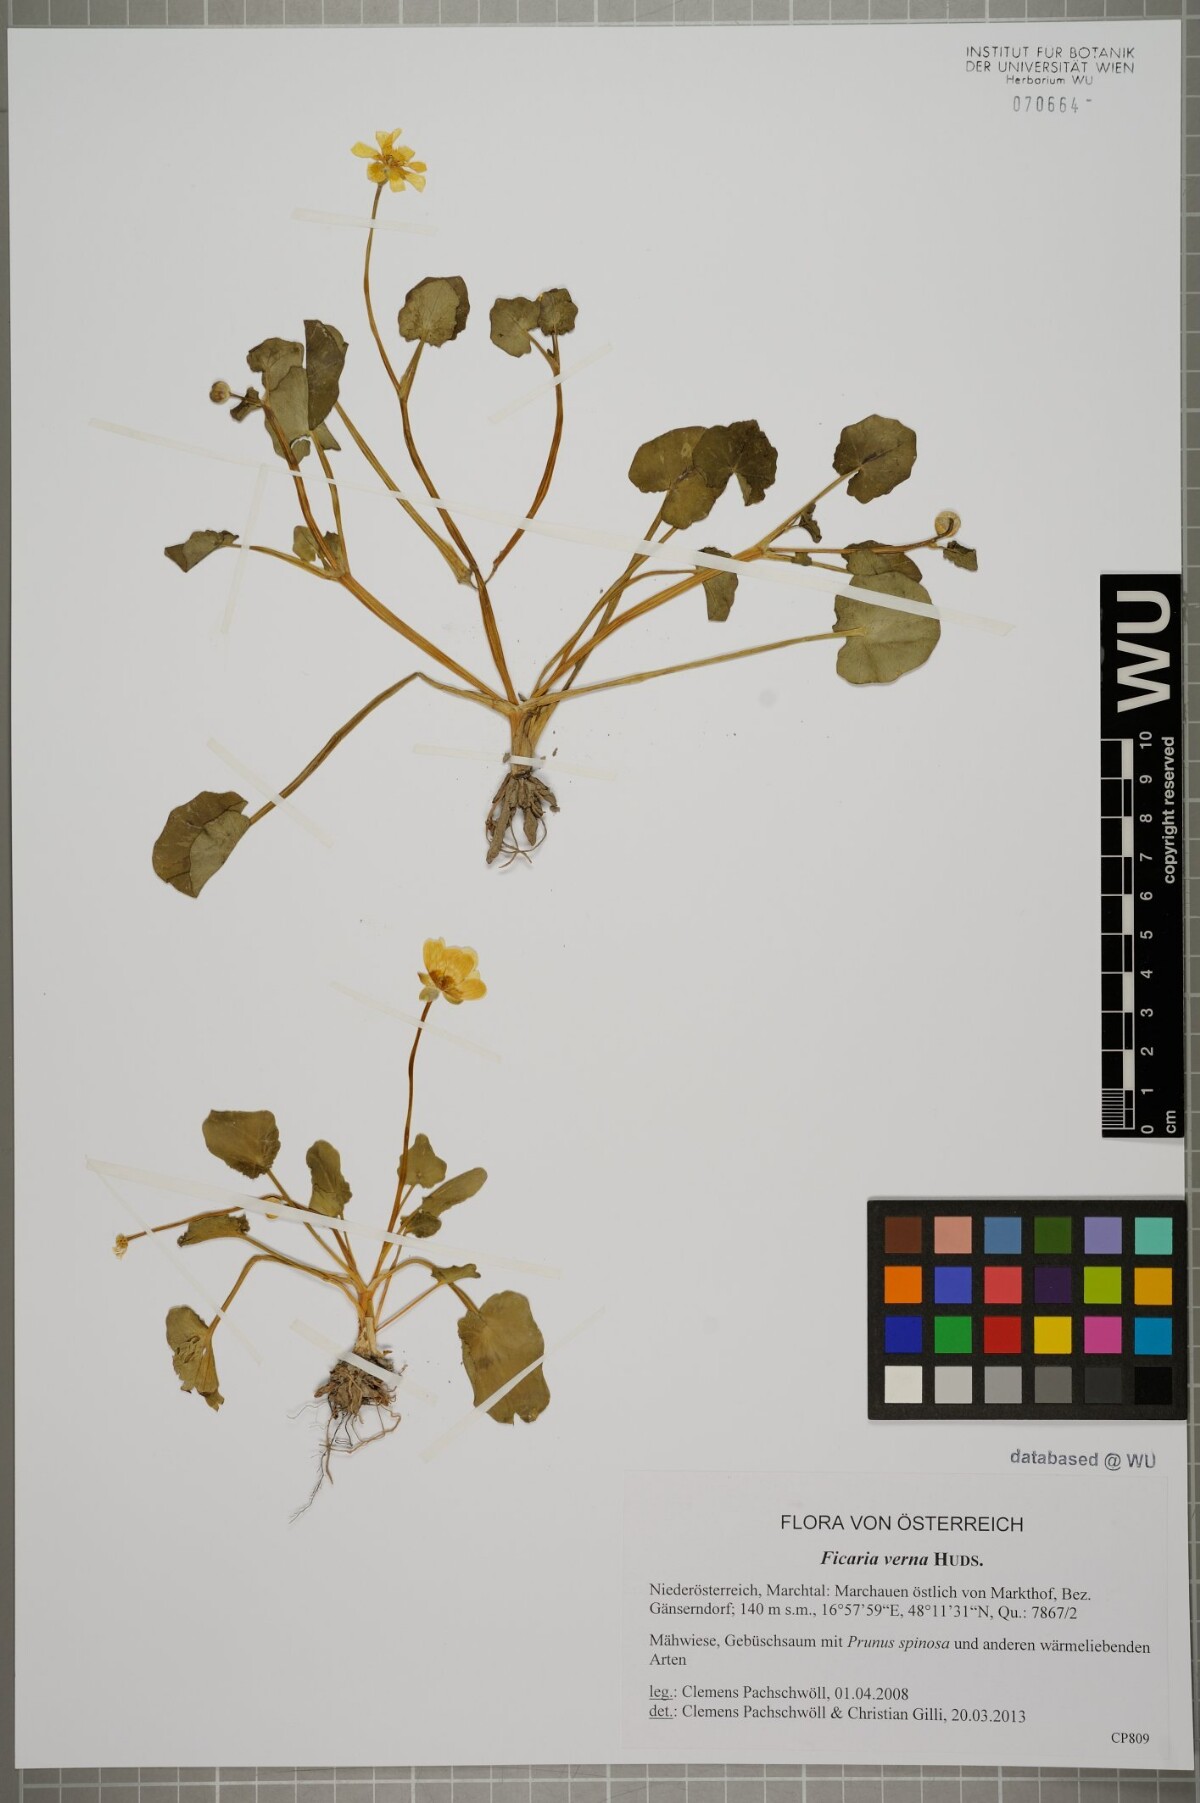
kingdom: Plantae
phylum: Tracheophyta
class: Magnoliopsida
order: Ranunculales
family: Ranunculaceae
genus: Ficaria
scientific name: Ficaria verna
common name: Lesser celandine
